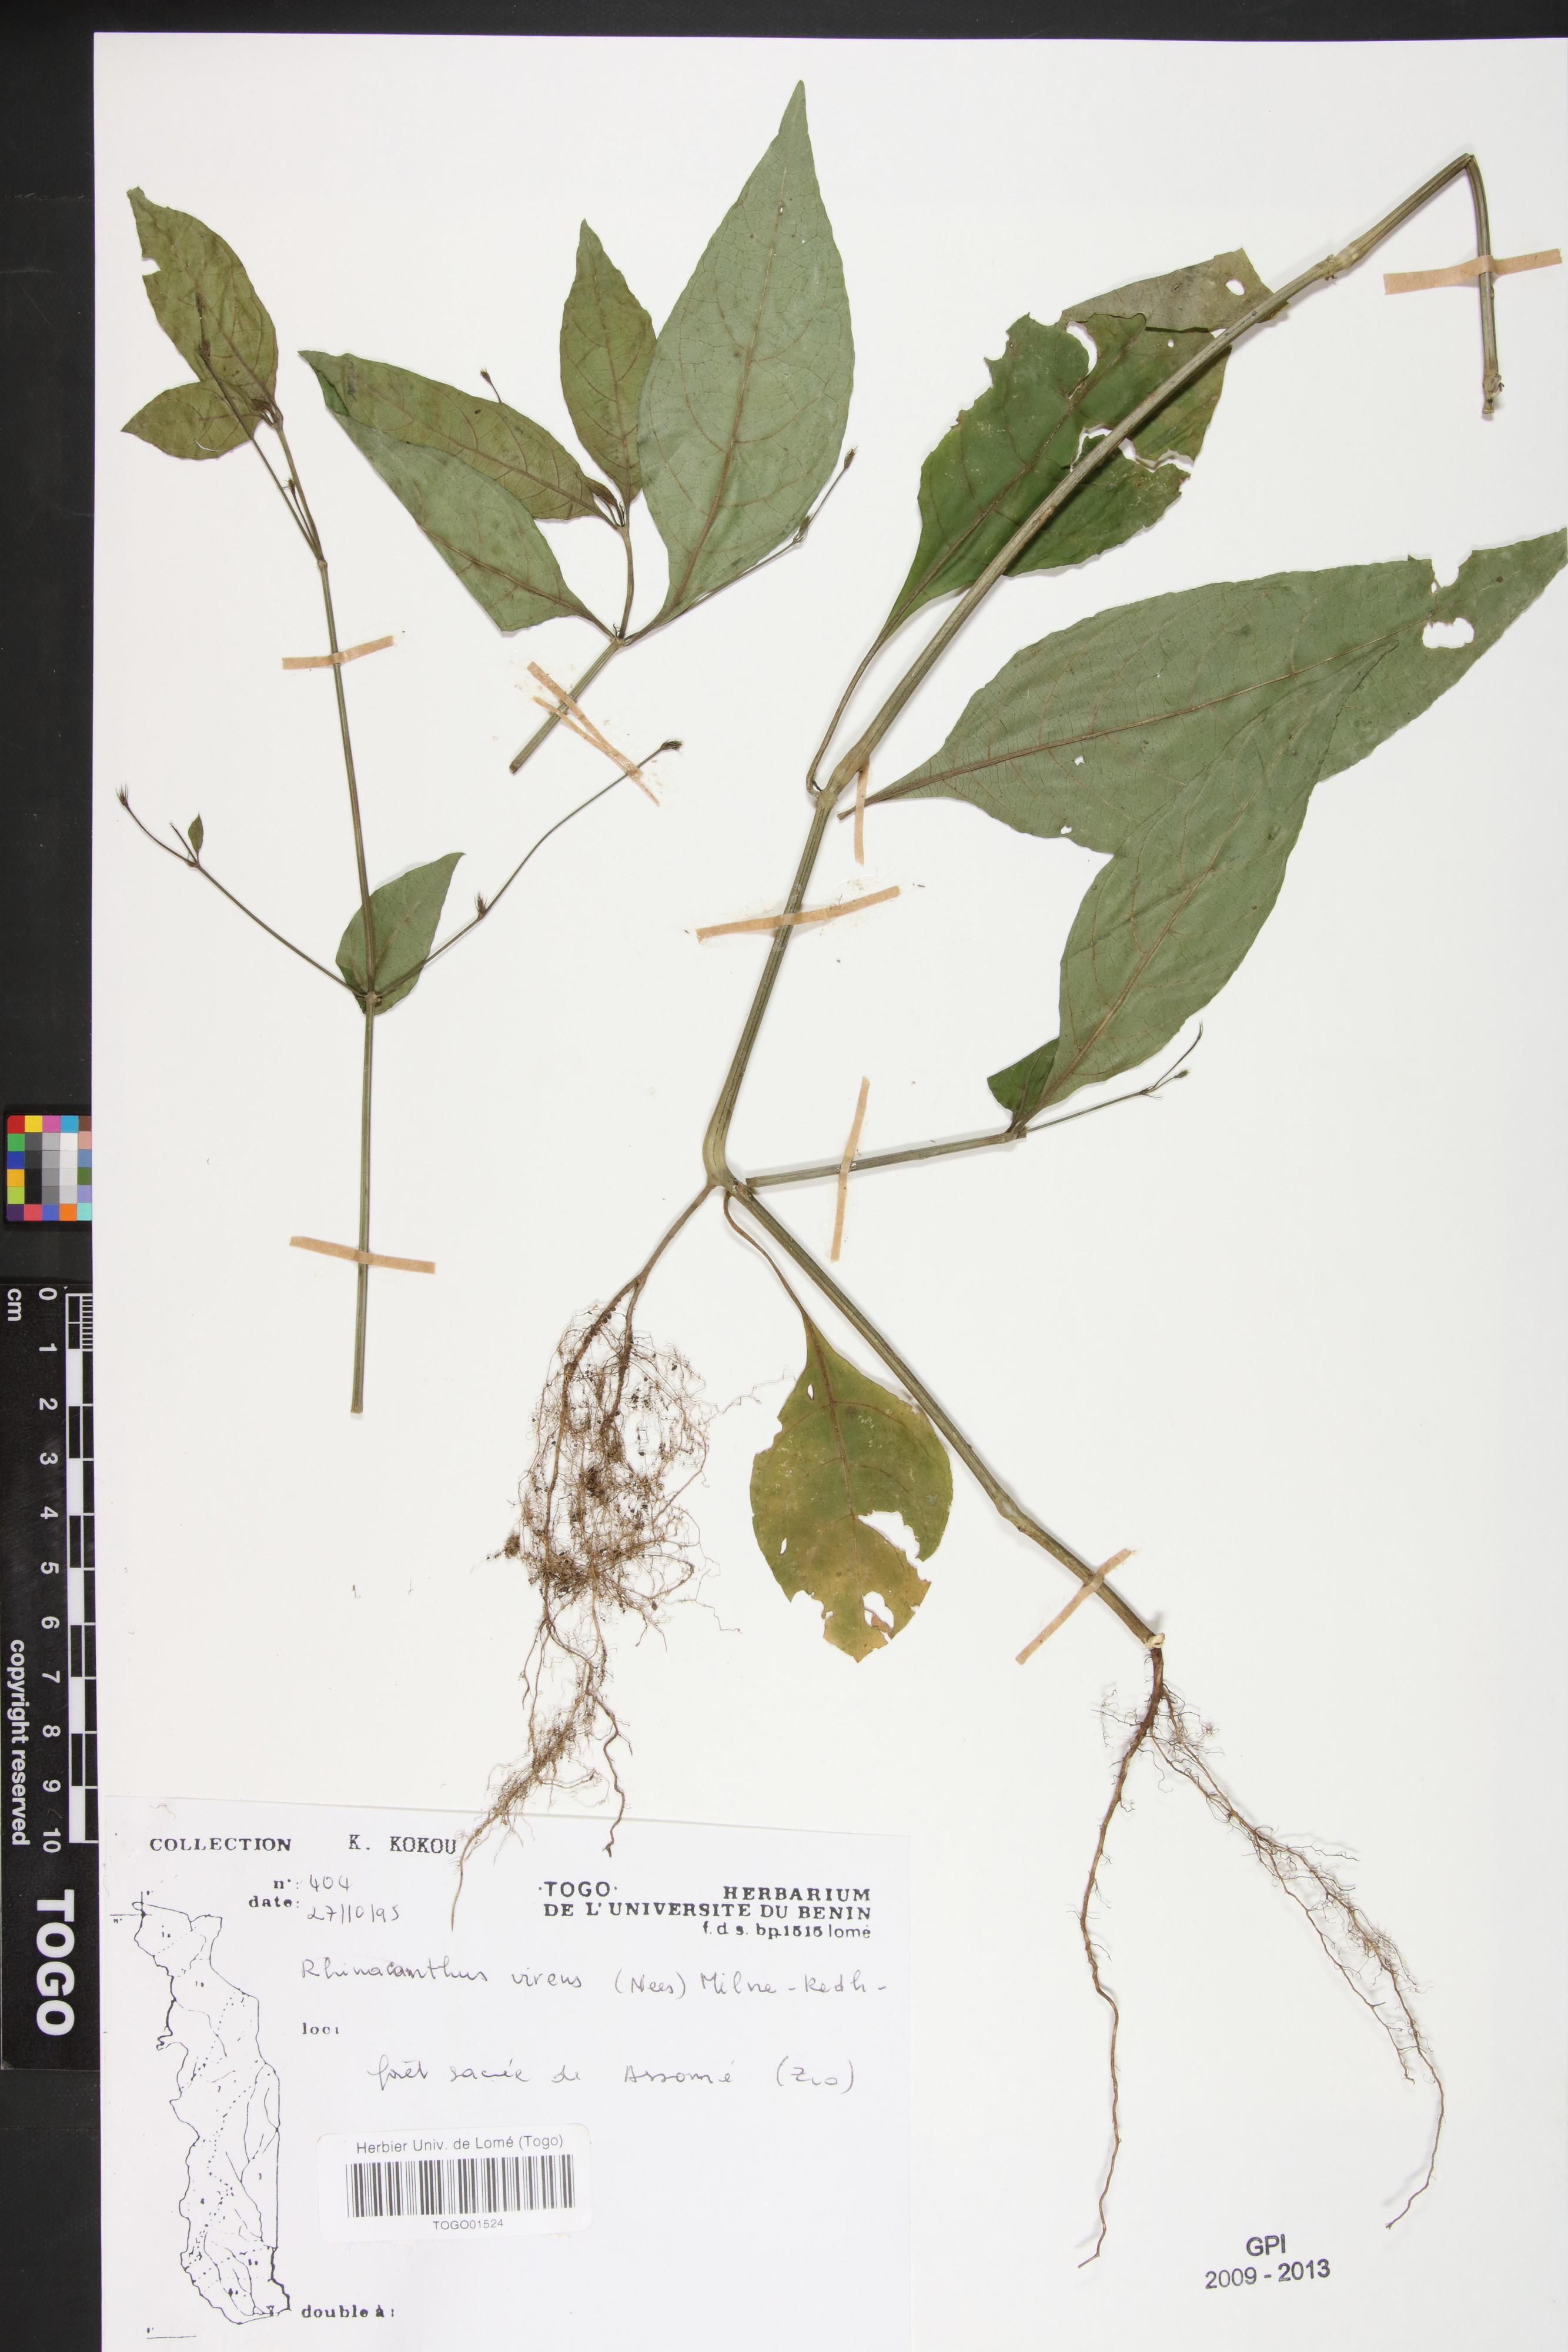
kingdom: Plantae
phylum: Tracheophyta
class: Magnoliopsida
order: Lamiales
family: Acanthaceae
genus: Rhinacanthus
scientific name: Rhinacanthus virens
